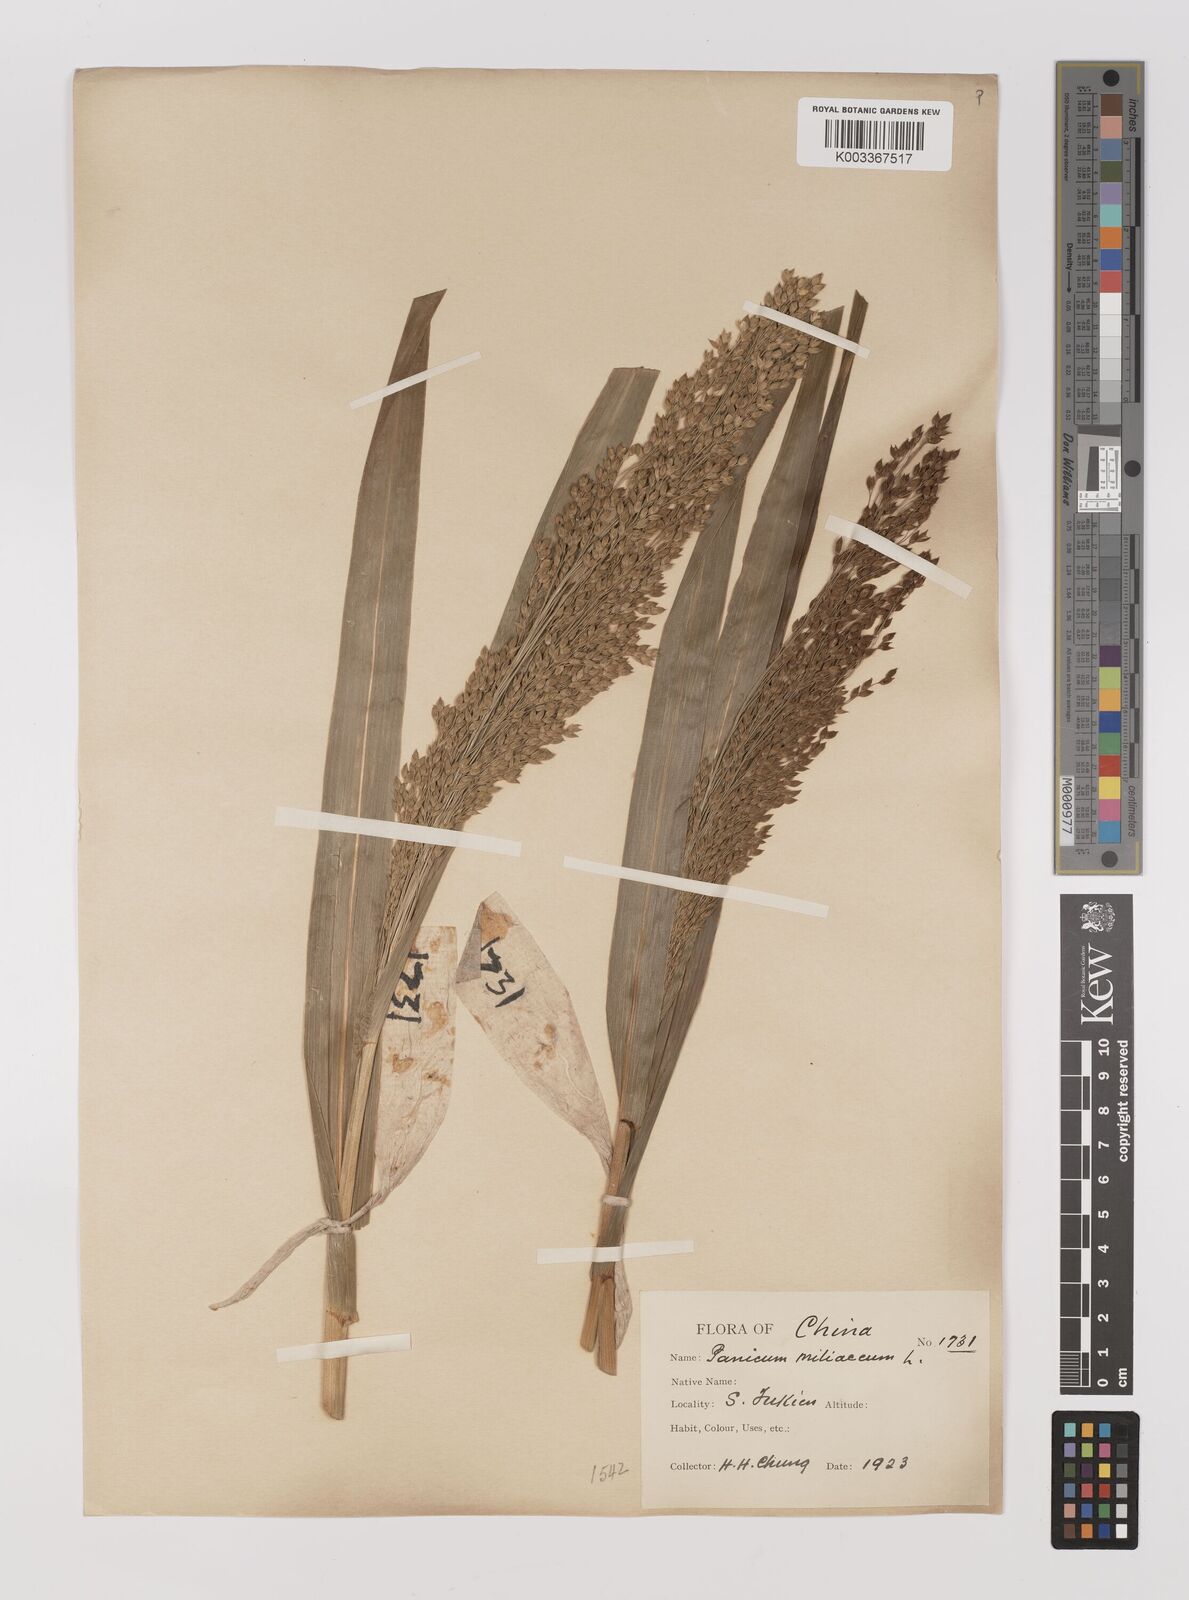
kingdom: Plantae
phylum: Tracheophyta
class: Liliopsida
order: Poales
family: Poaceae
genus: Panicum
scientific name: Panicum miliaceum
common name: Common millet
